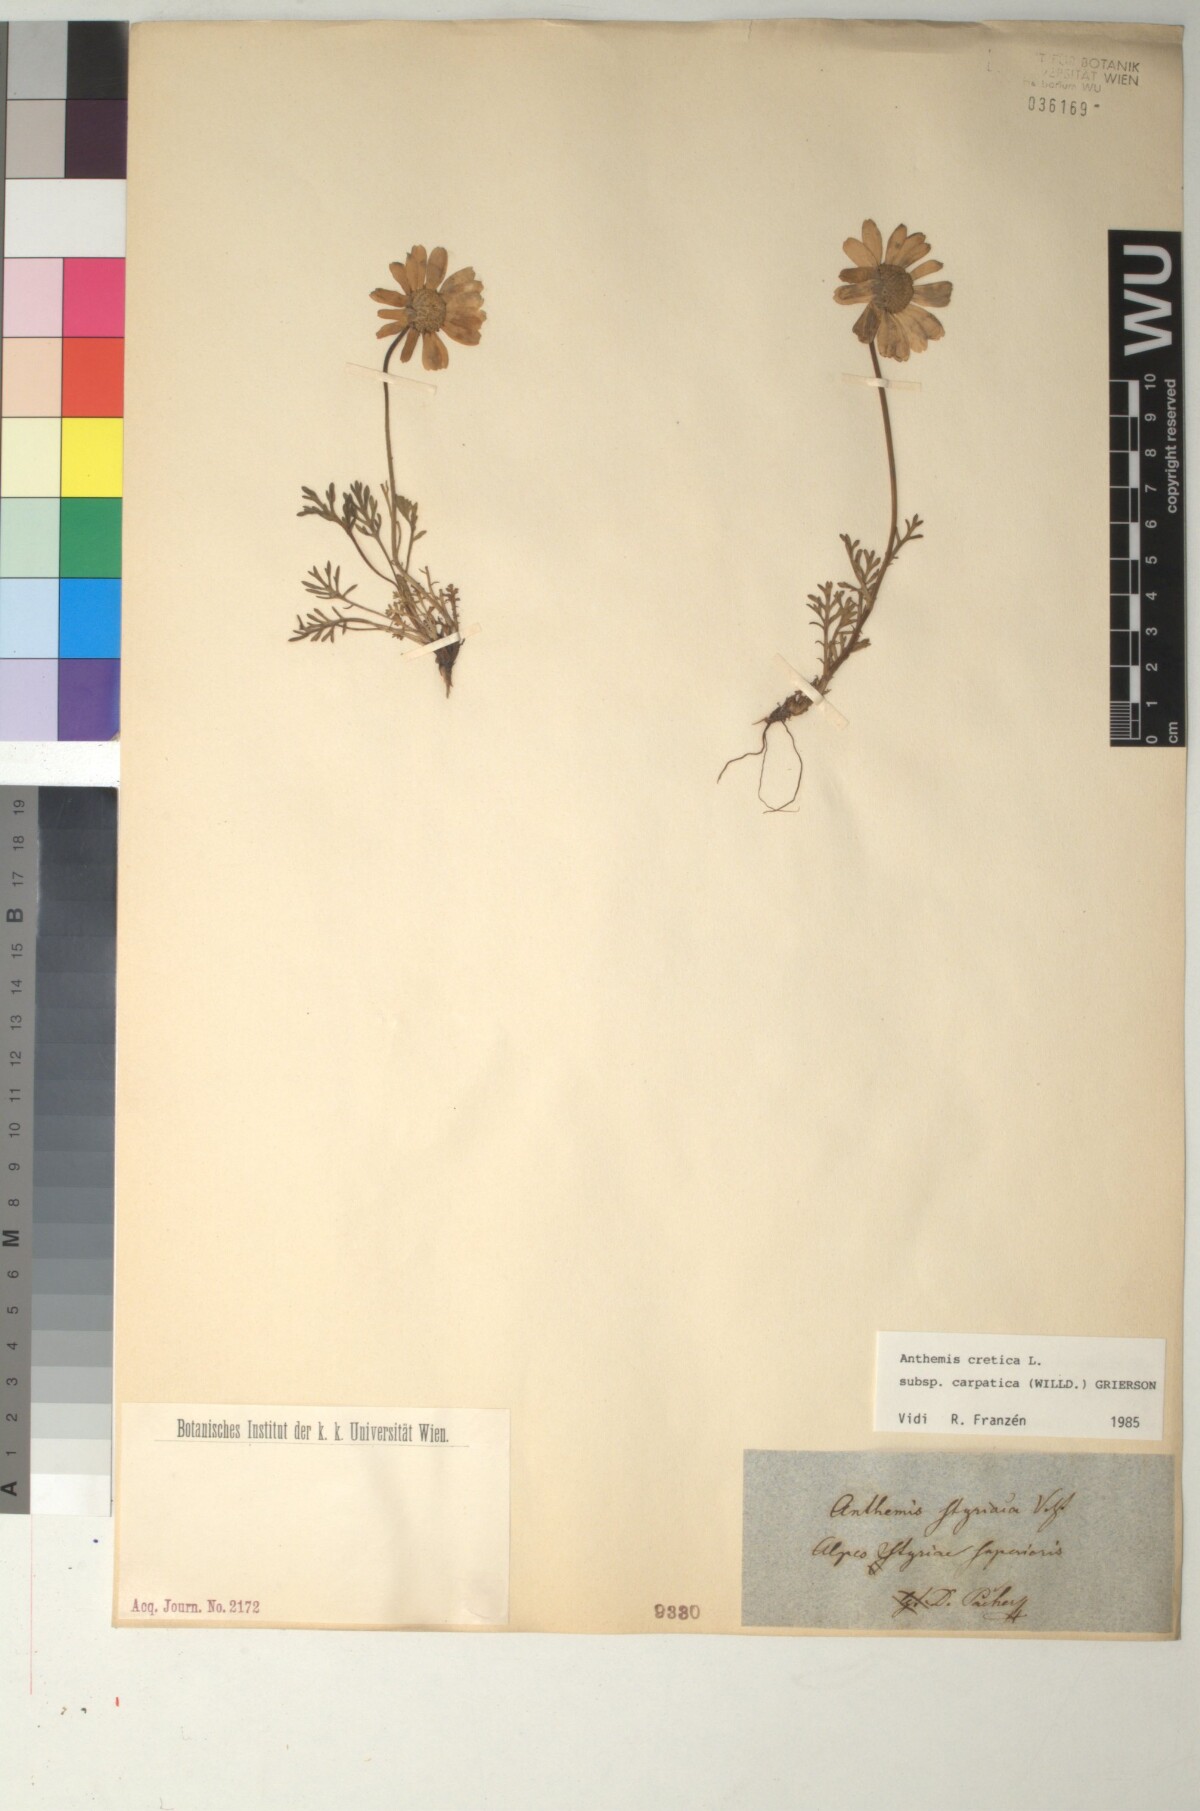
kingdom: Plantae
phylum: Tracheophyta
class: Magnoliopsida
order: Asterales
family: Asteraceae
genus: Anthemis
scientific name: Anthemis cretica
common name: Mountain dog-daisy
